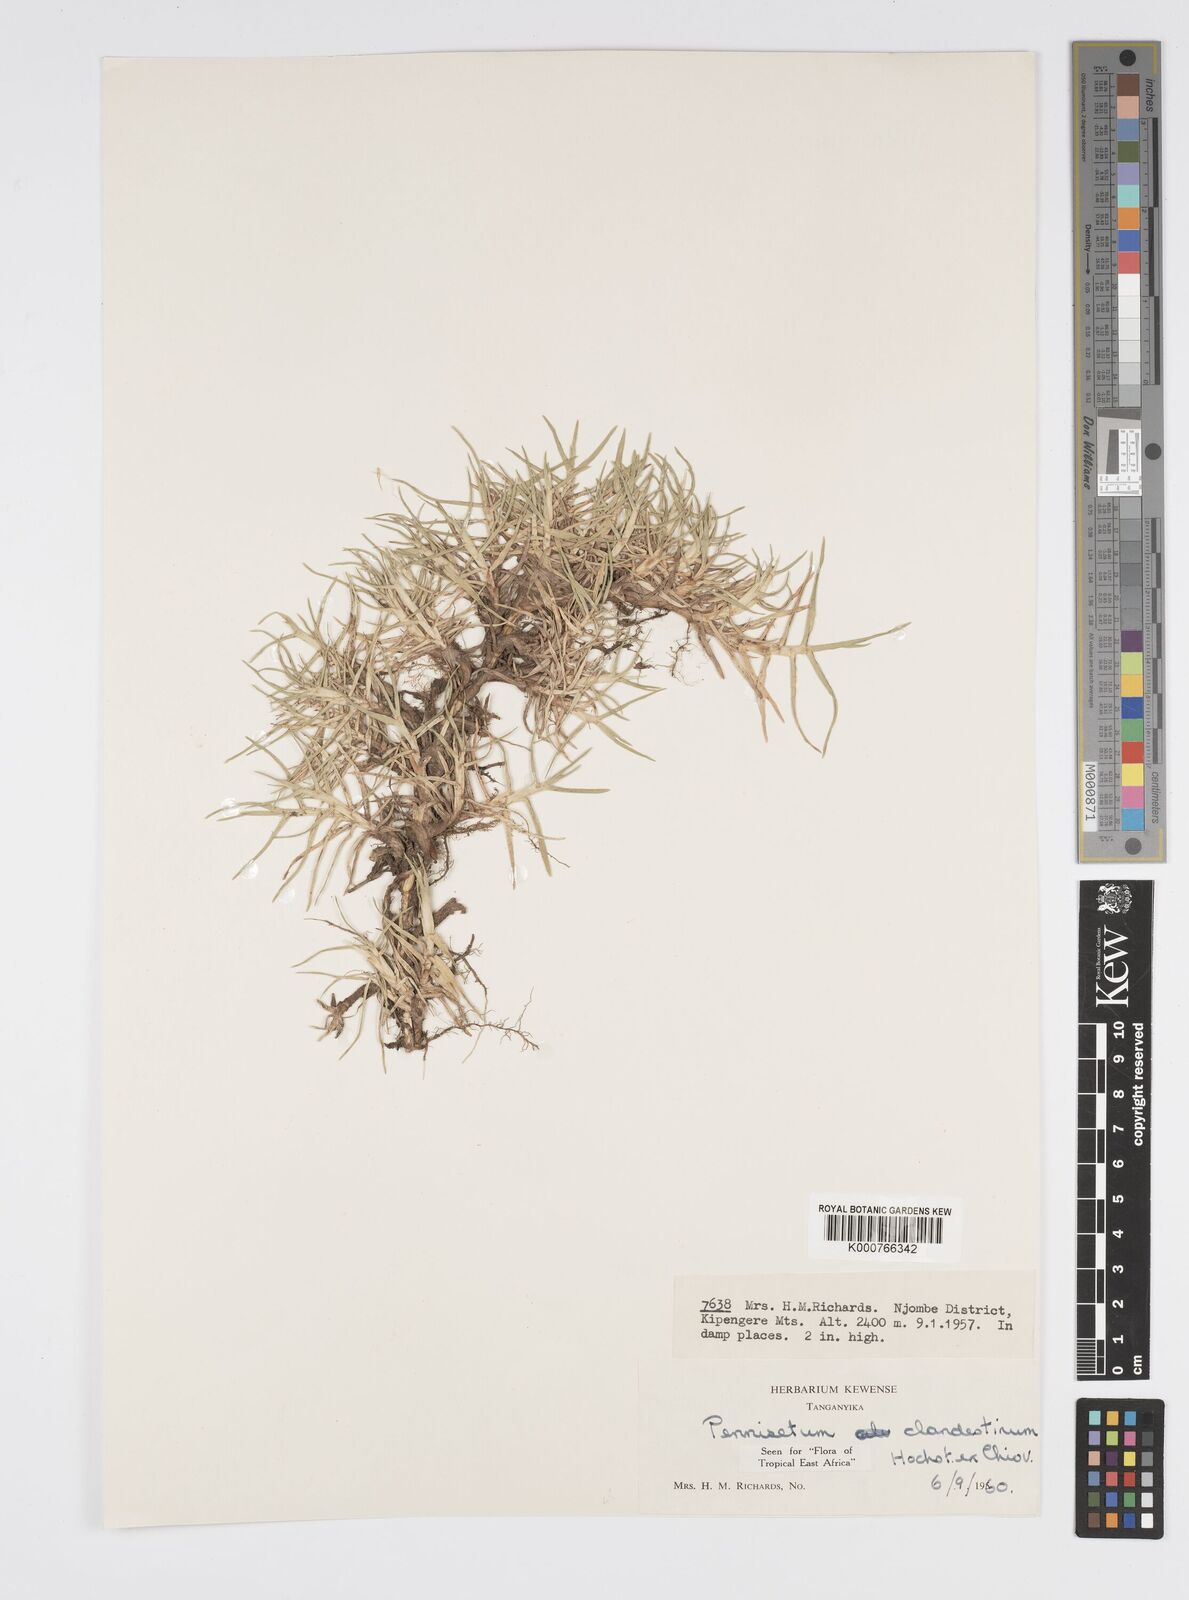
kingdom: Plantae
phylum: Tracheophyta
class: Liliopsida
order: Poales
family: Poaceae
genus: Cenchrus
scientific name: Cenchrus clandestinus
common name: Kikuyugrass
